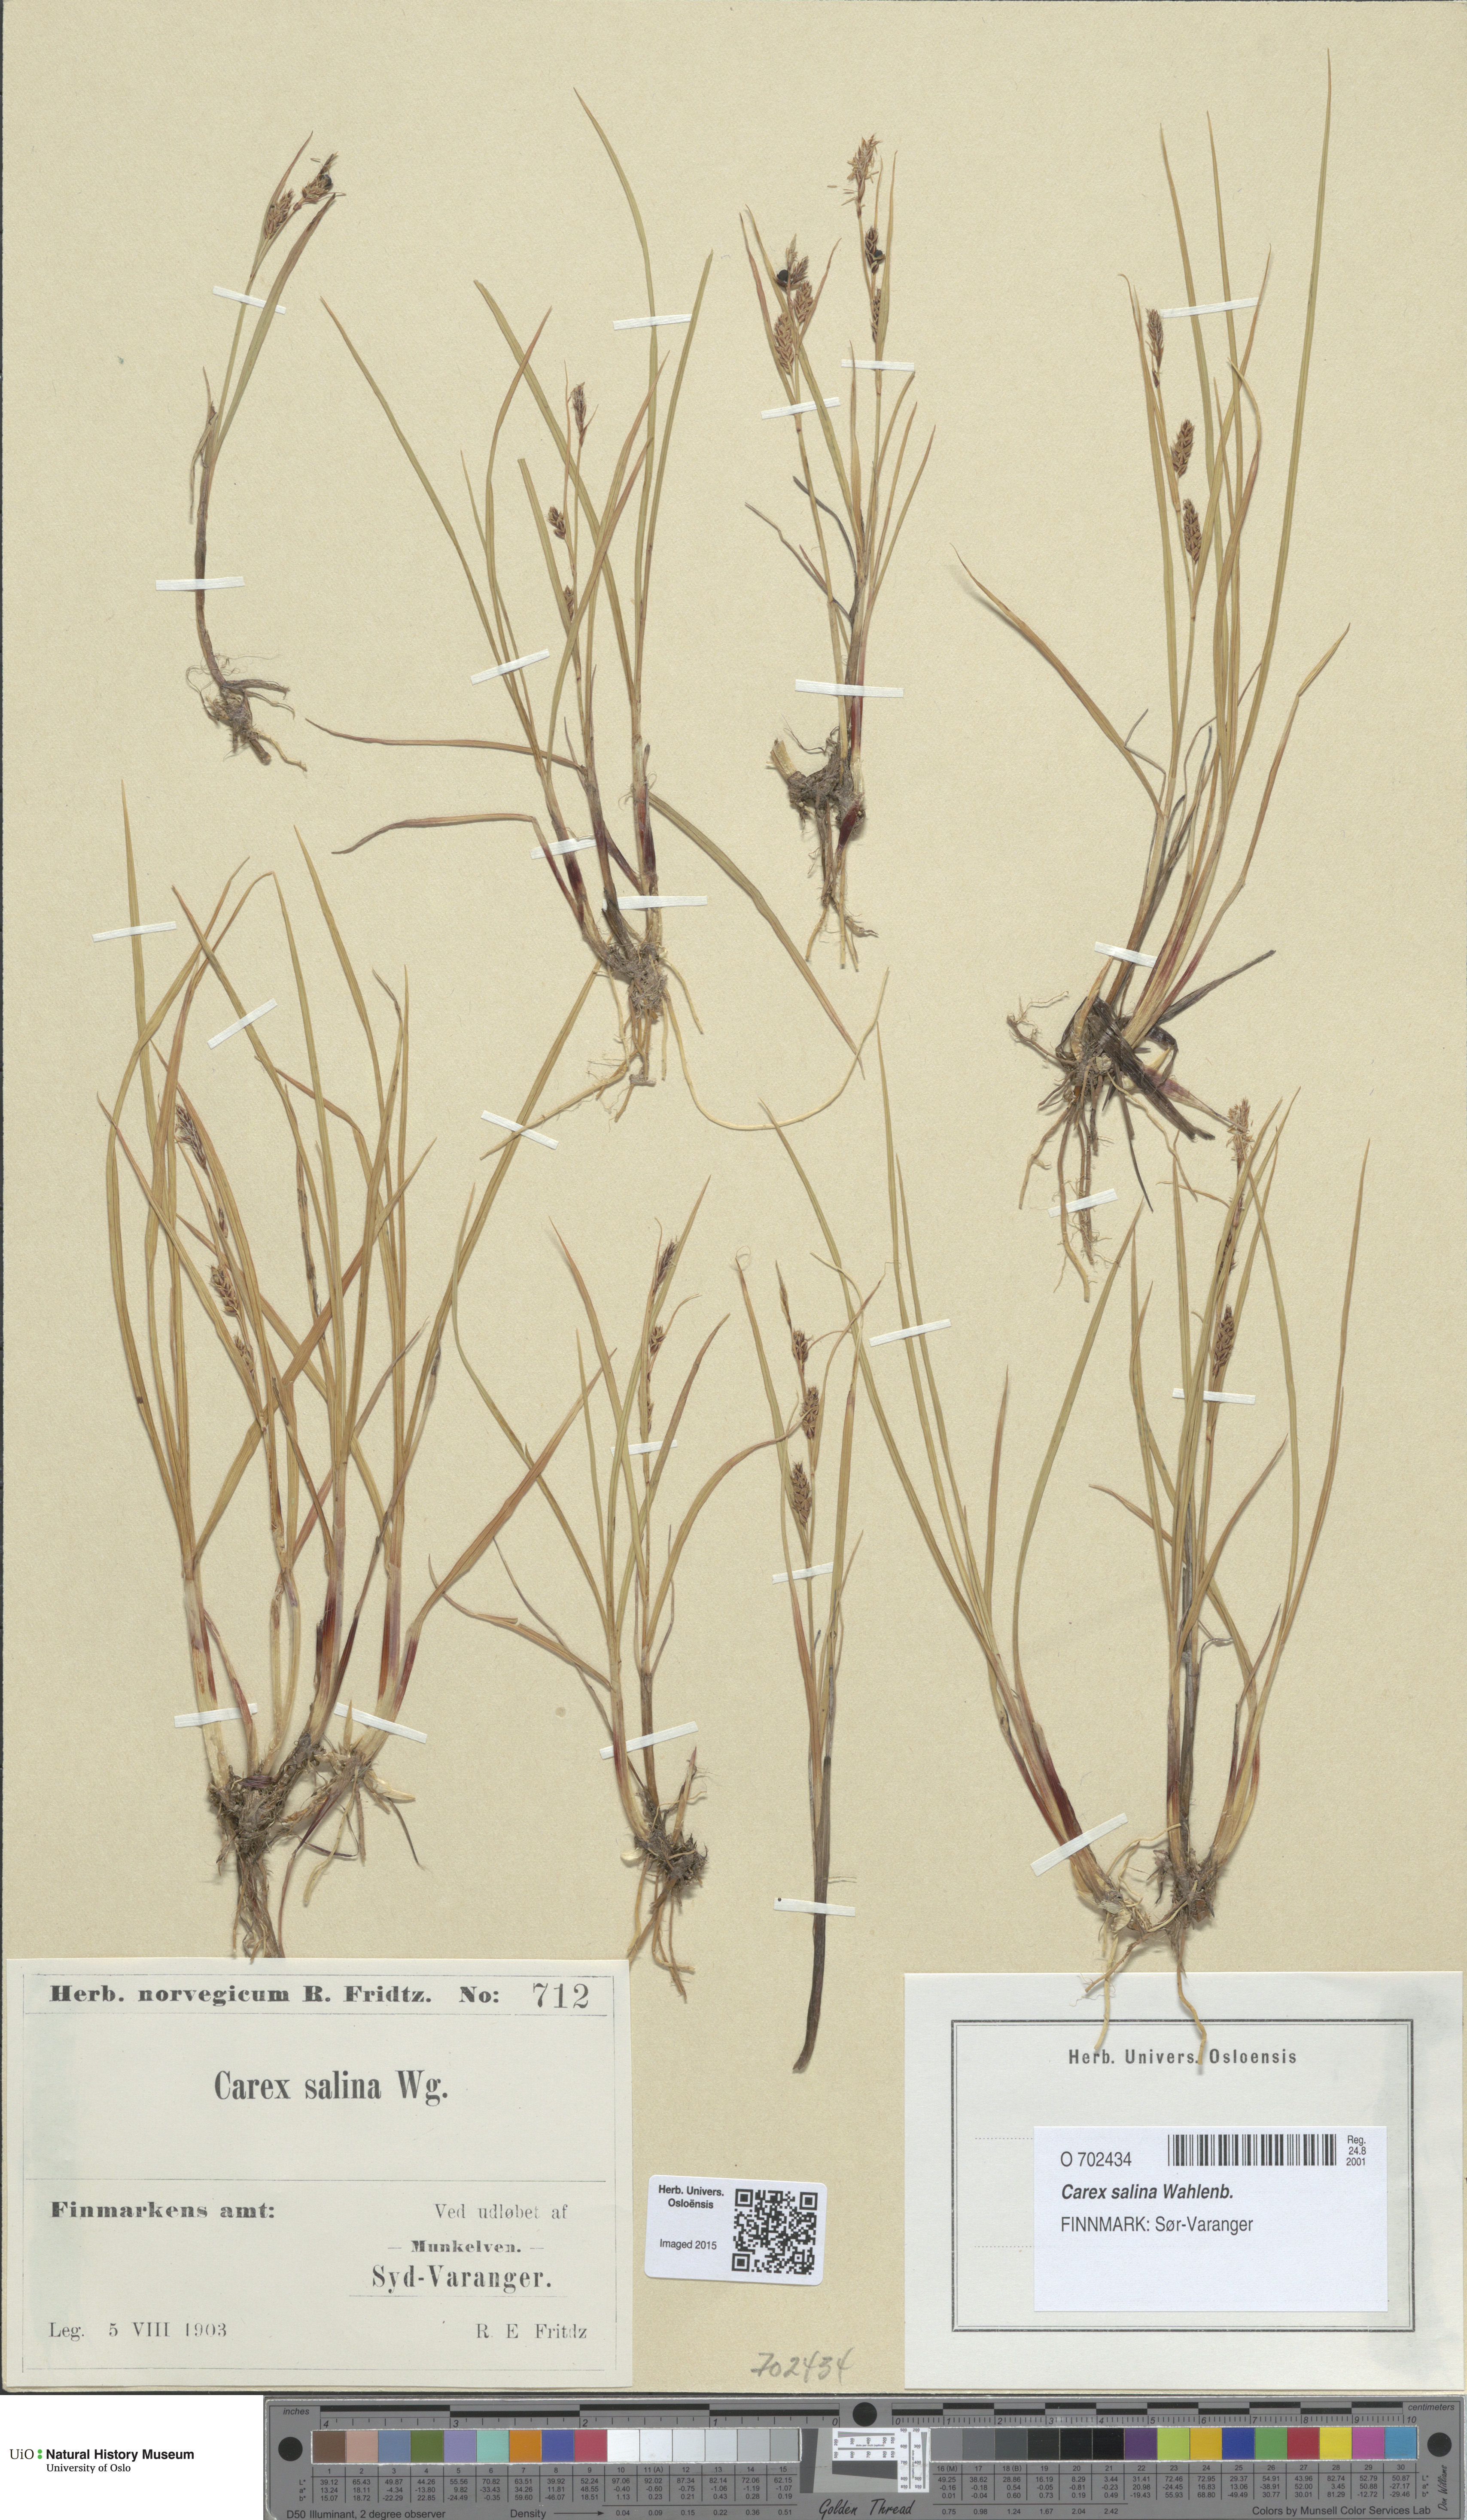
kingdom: Plantae
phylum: Tracheophyta
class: Liliopsida
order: Poales
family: Cyperaceae
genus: Carex
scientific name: Carex salina
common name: Saltmarsh sedge
